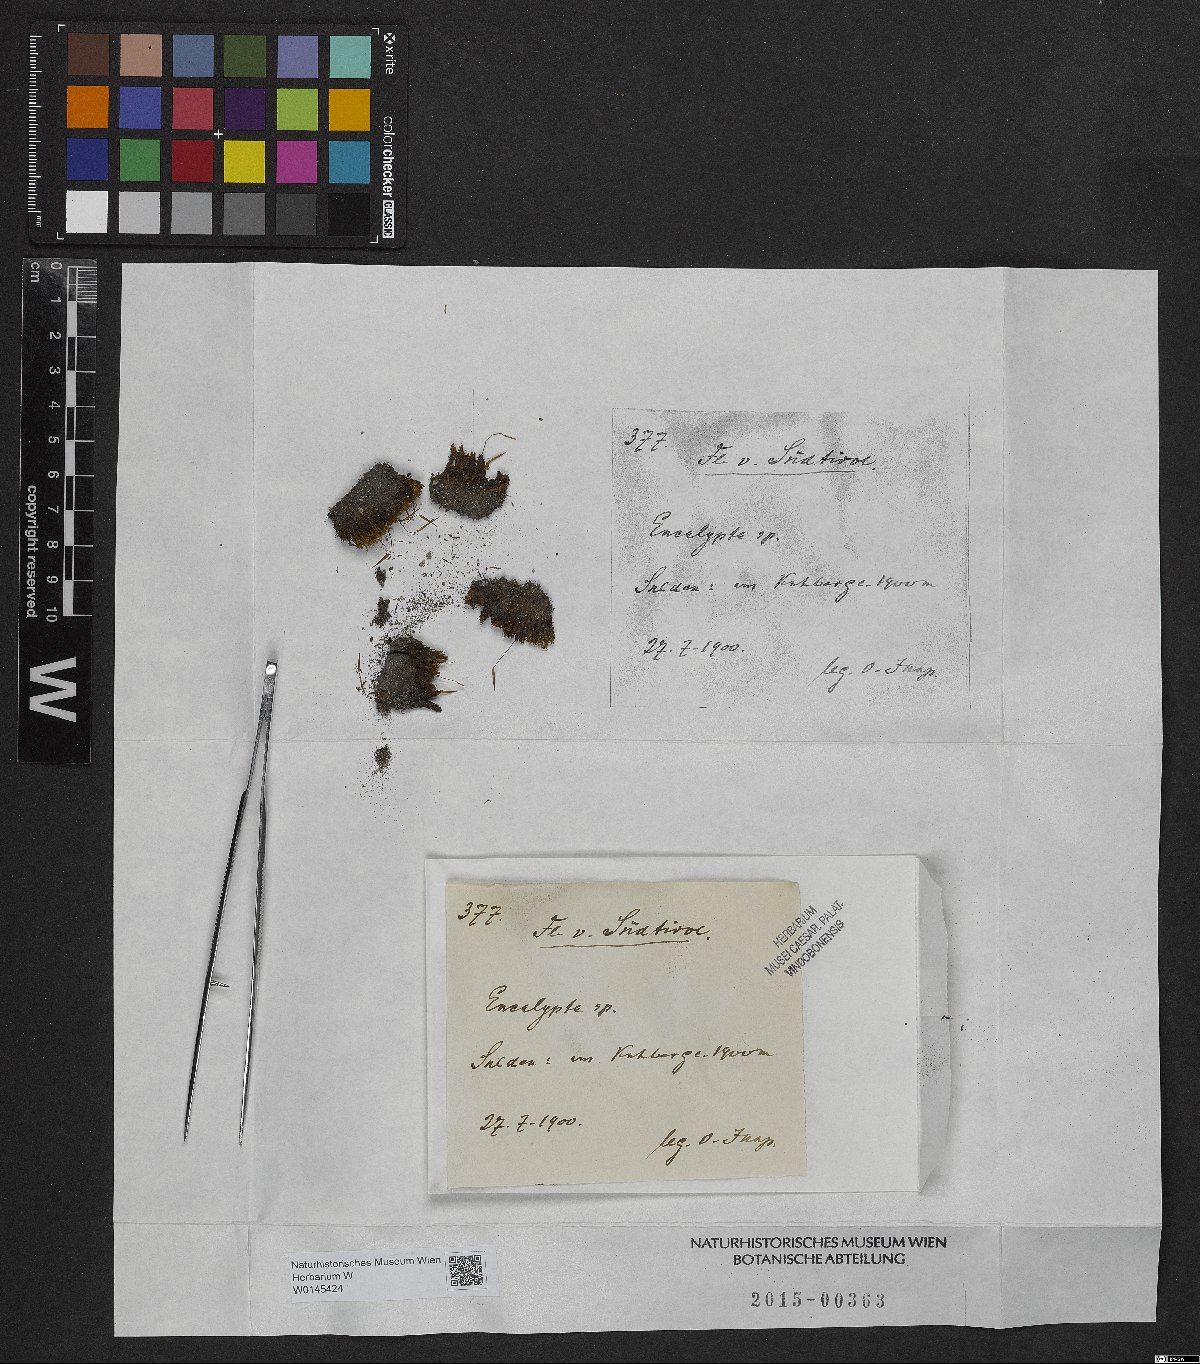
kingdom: Plantae
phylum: Bryophyta
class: Bryopsida
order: Encalyptales
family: Encalyptaceae
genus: Encalypta
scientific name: Encalypta
